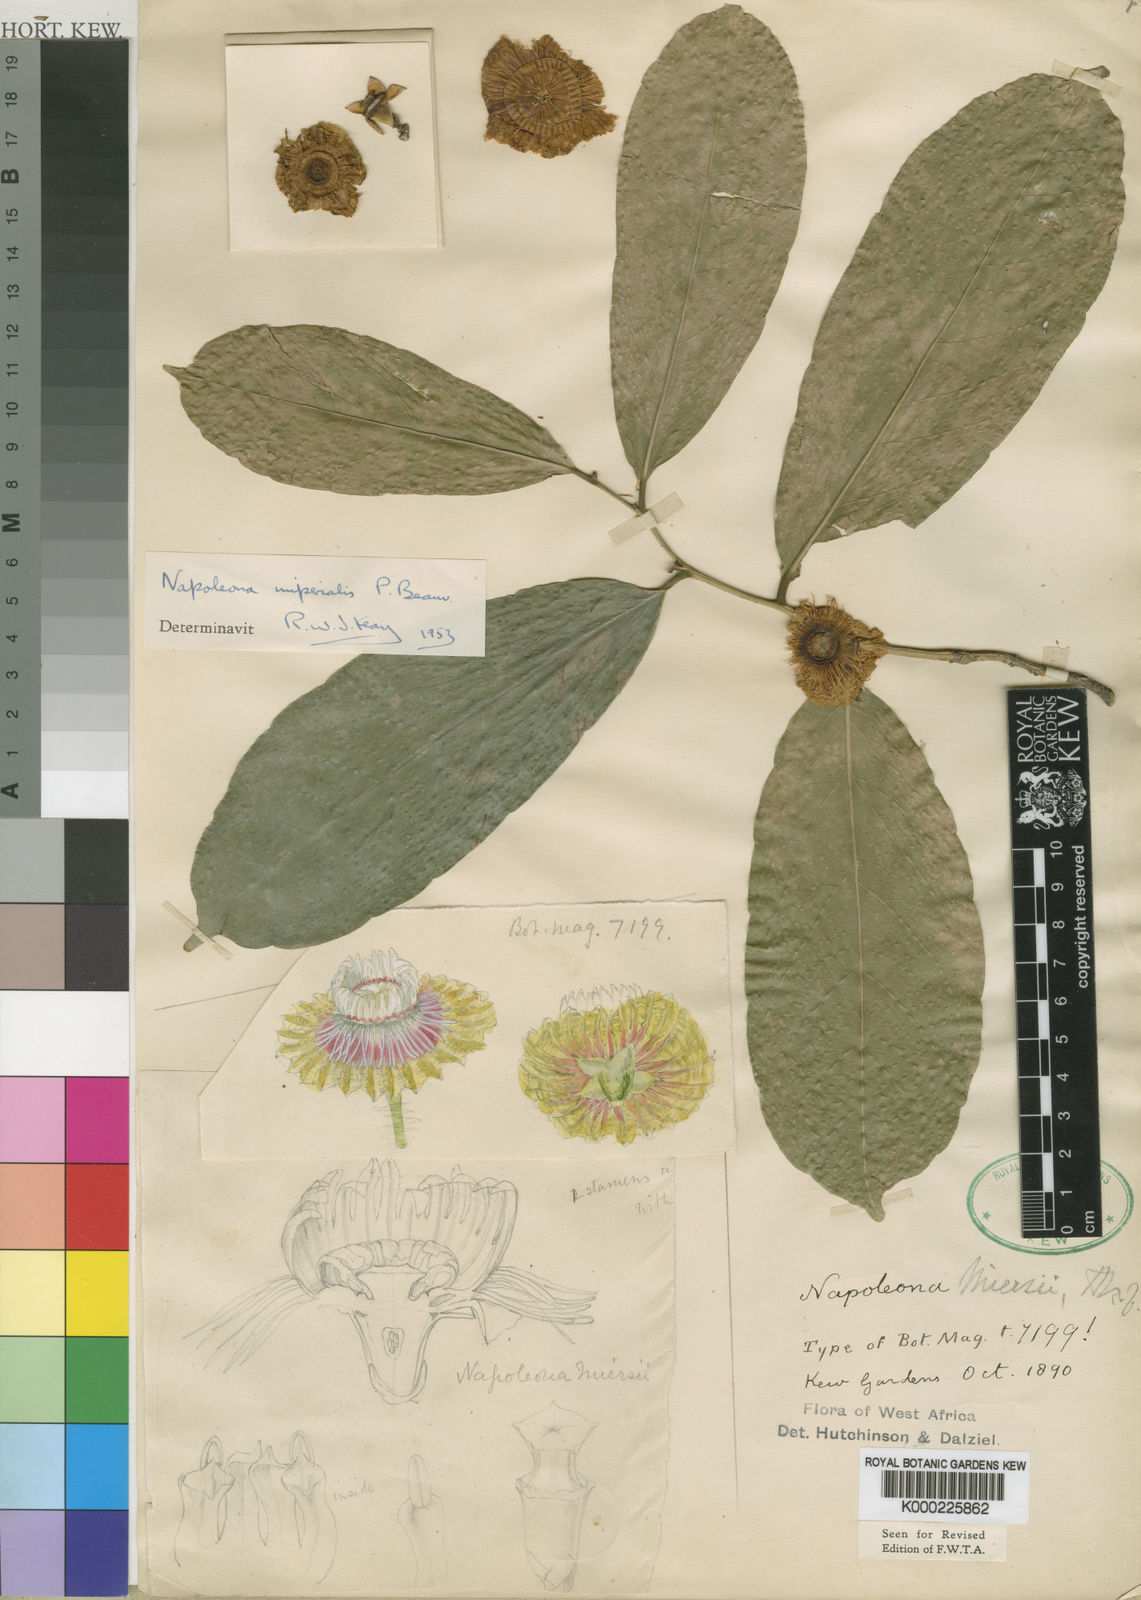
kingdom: Plantae
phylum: Tracheophyta
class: Magnoliopsida
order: Ericales
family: Lecythidaceae
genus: Napoleonaea
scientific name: Napoleonaea imperialis
